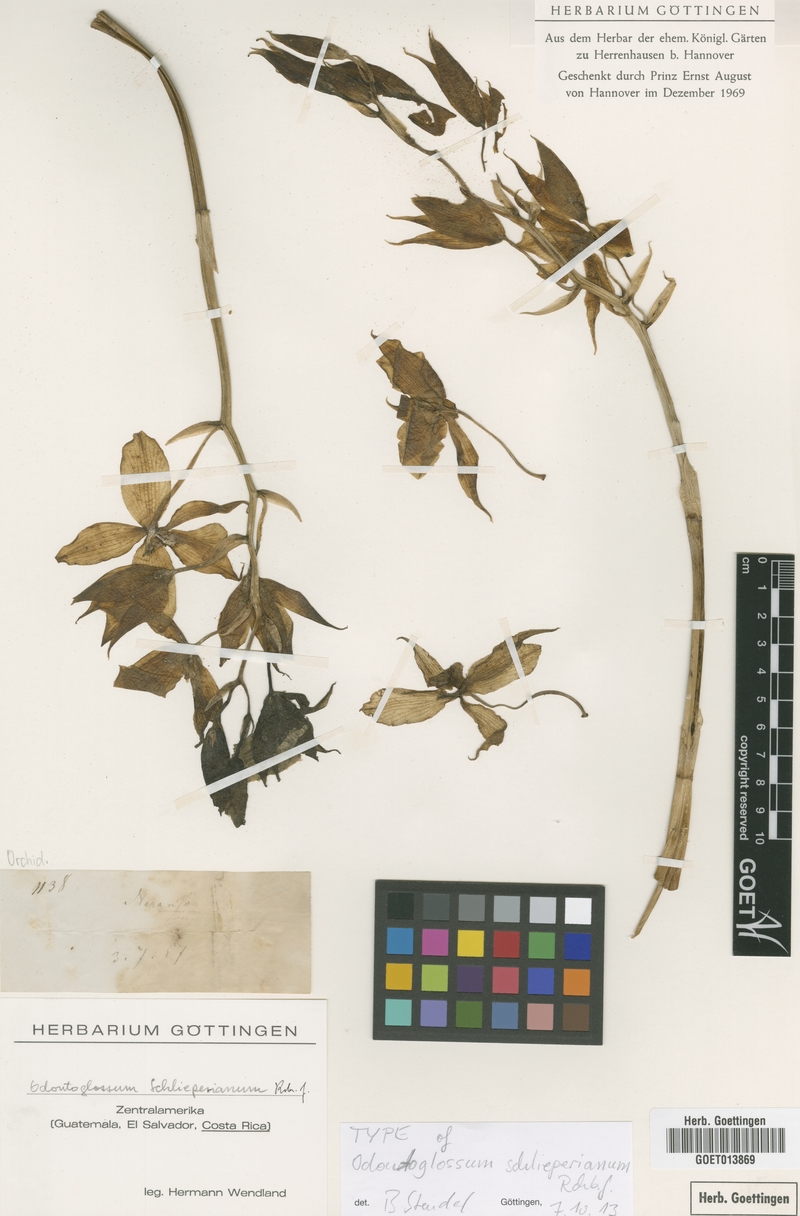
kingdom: Plantae
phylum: Tracheophyta
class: Liliopsida
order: Asparagales
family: Orchidaceae
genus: Rossioglossum
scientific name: Rossioglossum schlieperianum
